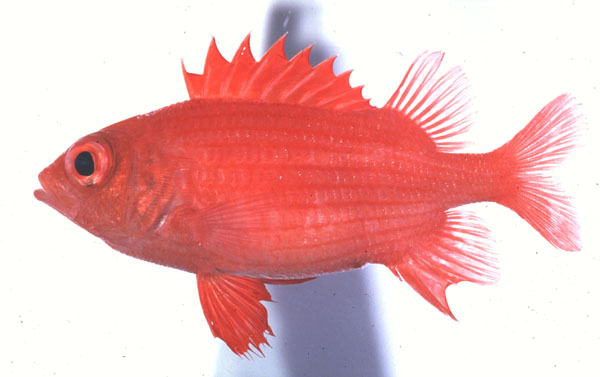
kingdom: Animalia
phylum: Chordata
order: Beryciformes
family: Holocentridae
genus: Sargocentron
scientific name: Sargocentron inaequalis
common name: Lattice squirrelfish
